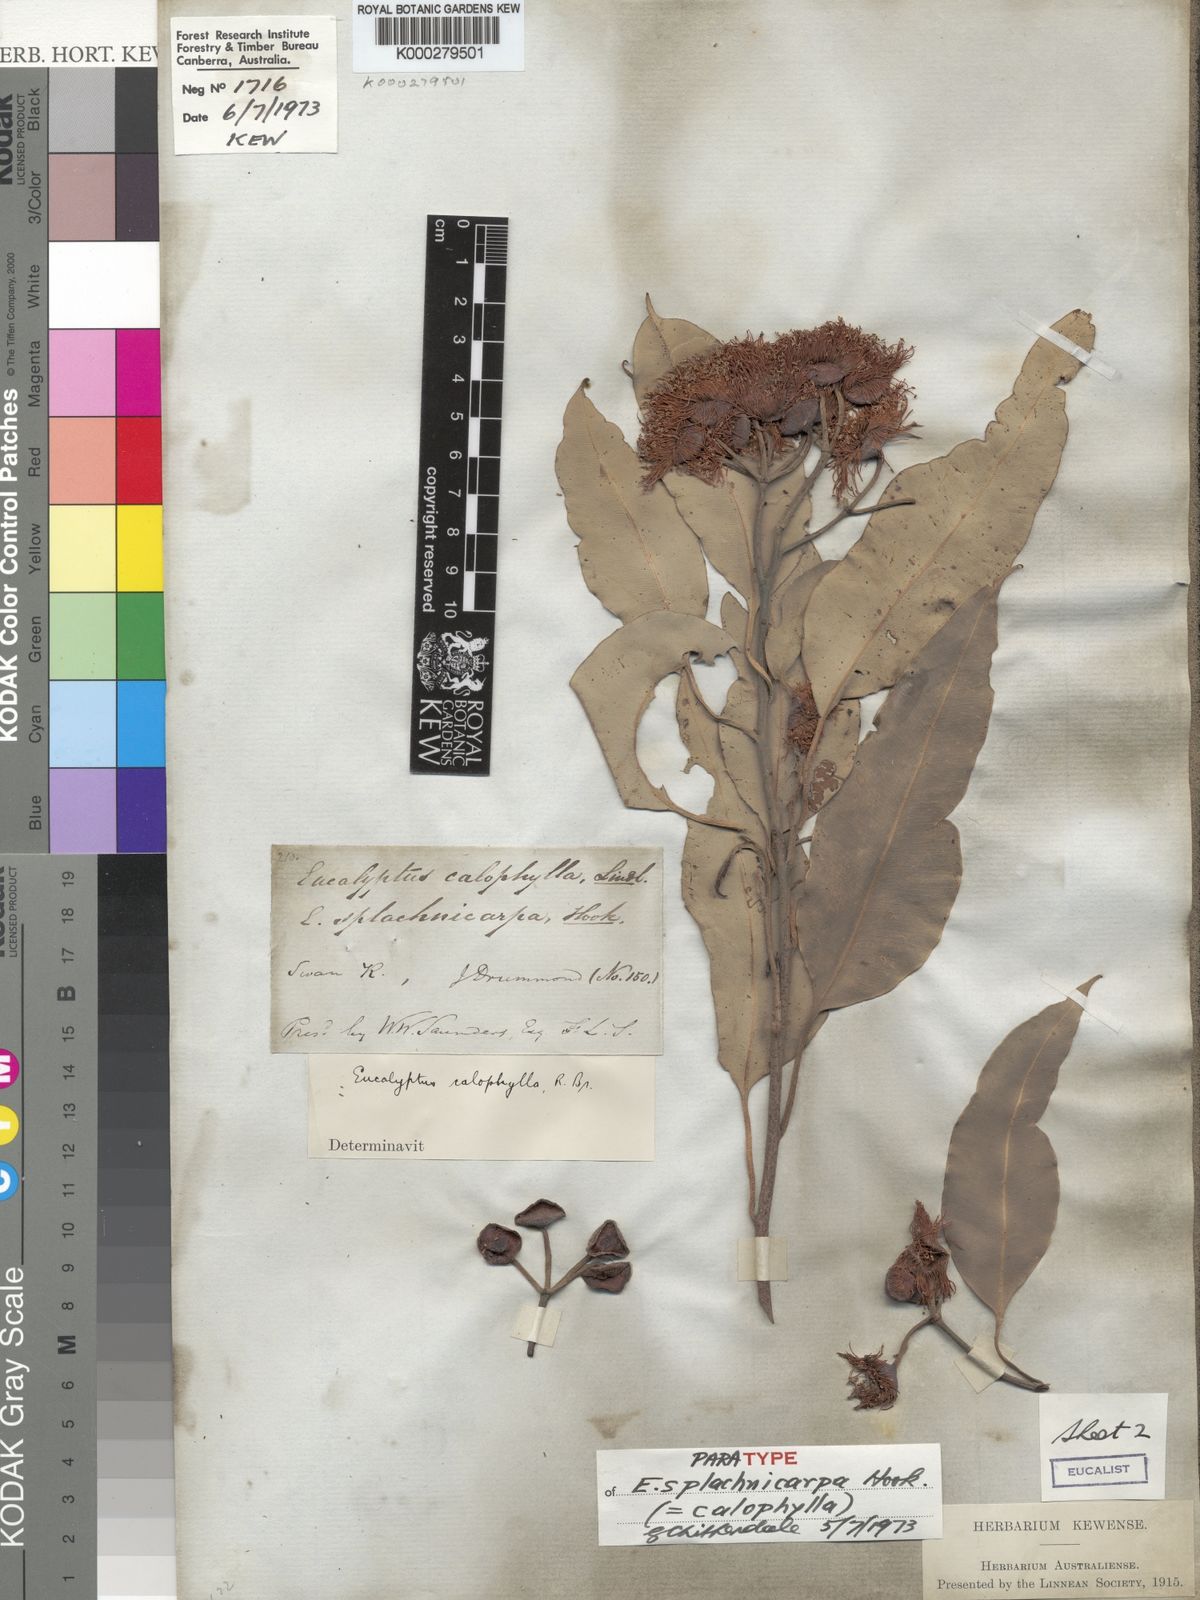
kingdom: Plantae
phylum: Tracheophyta
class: Magnoliopsida
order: Myrtales
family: Myrtaceae
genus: Corymbia
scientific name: Corymbia calophylla
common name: Marri
